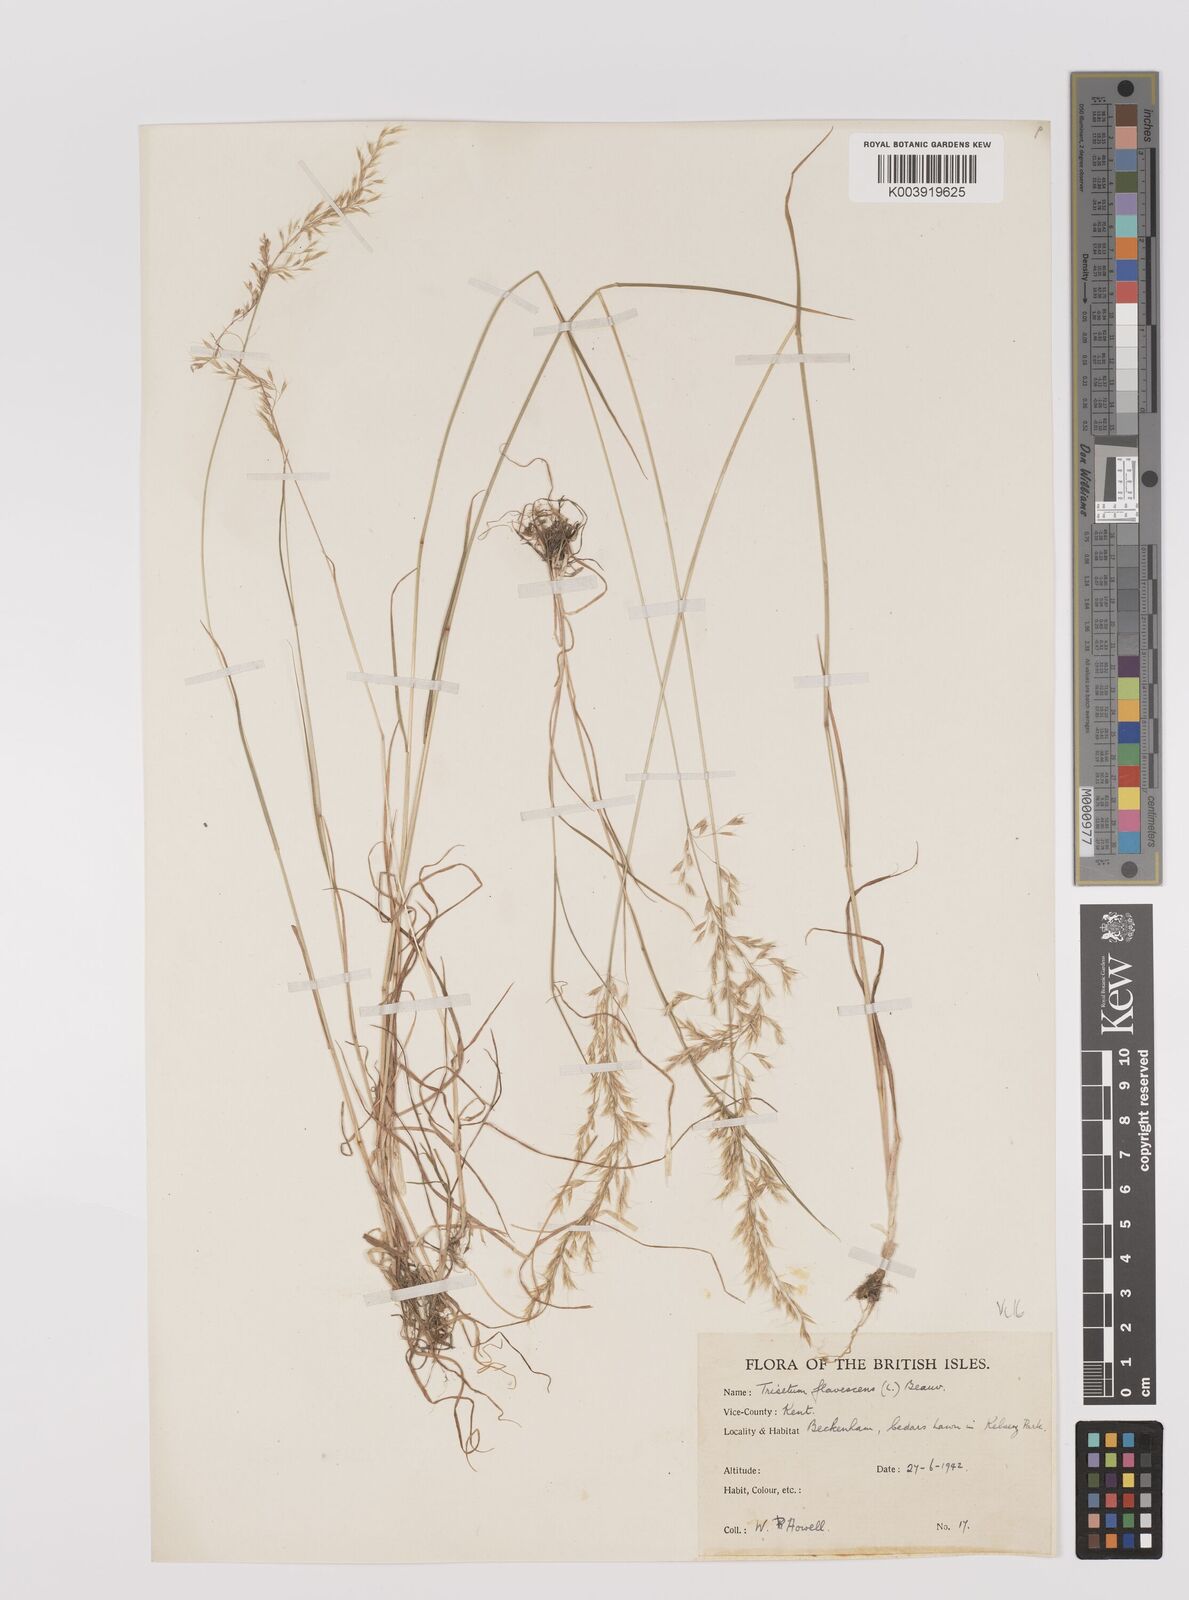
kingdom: Plantae
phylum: Tracheophyta
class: Liliopsida
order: Poales
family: Poaceae
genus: Trisetum
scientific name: Trisetum flavescens
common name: Yellow oat-grass
